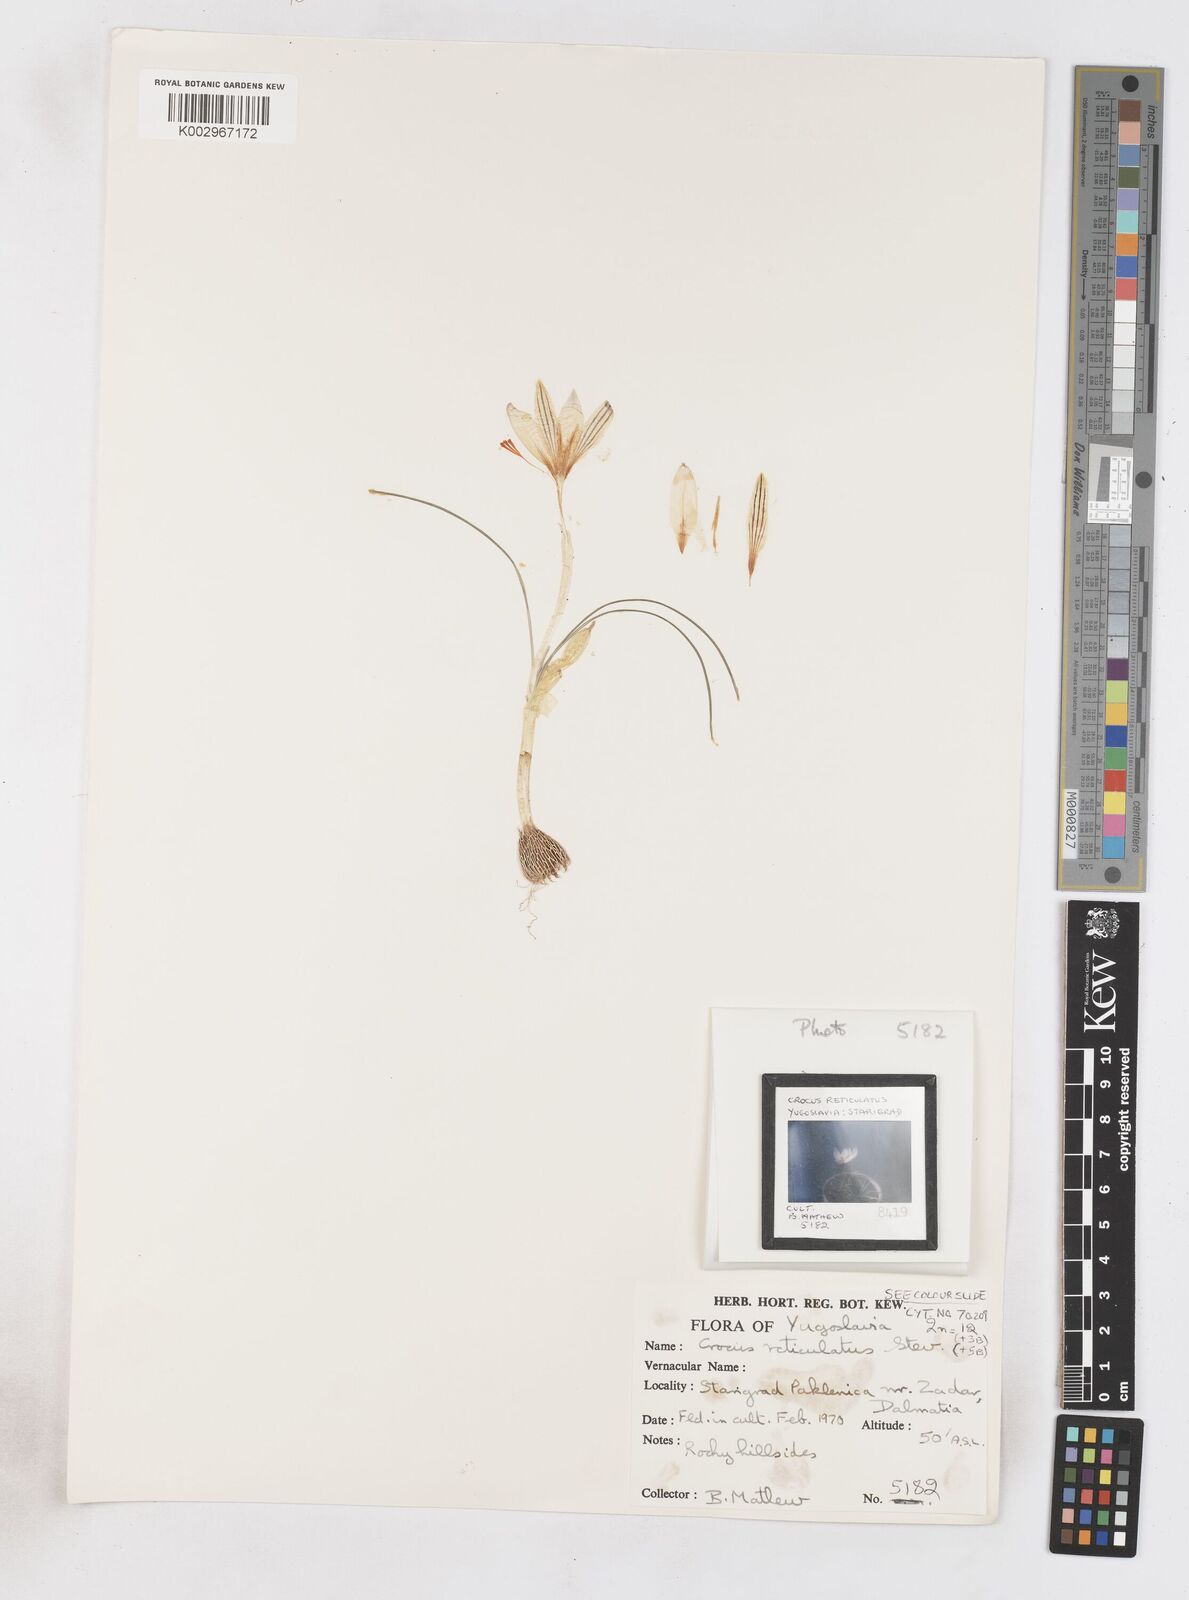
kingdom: Plantae
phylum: Tracheophyta
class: Liliopsida
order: Asparagales
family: Iridaceae
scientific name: Iridaceae
